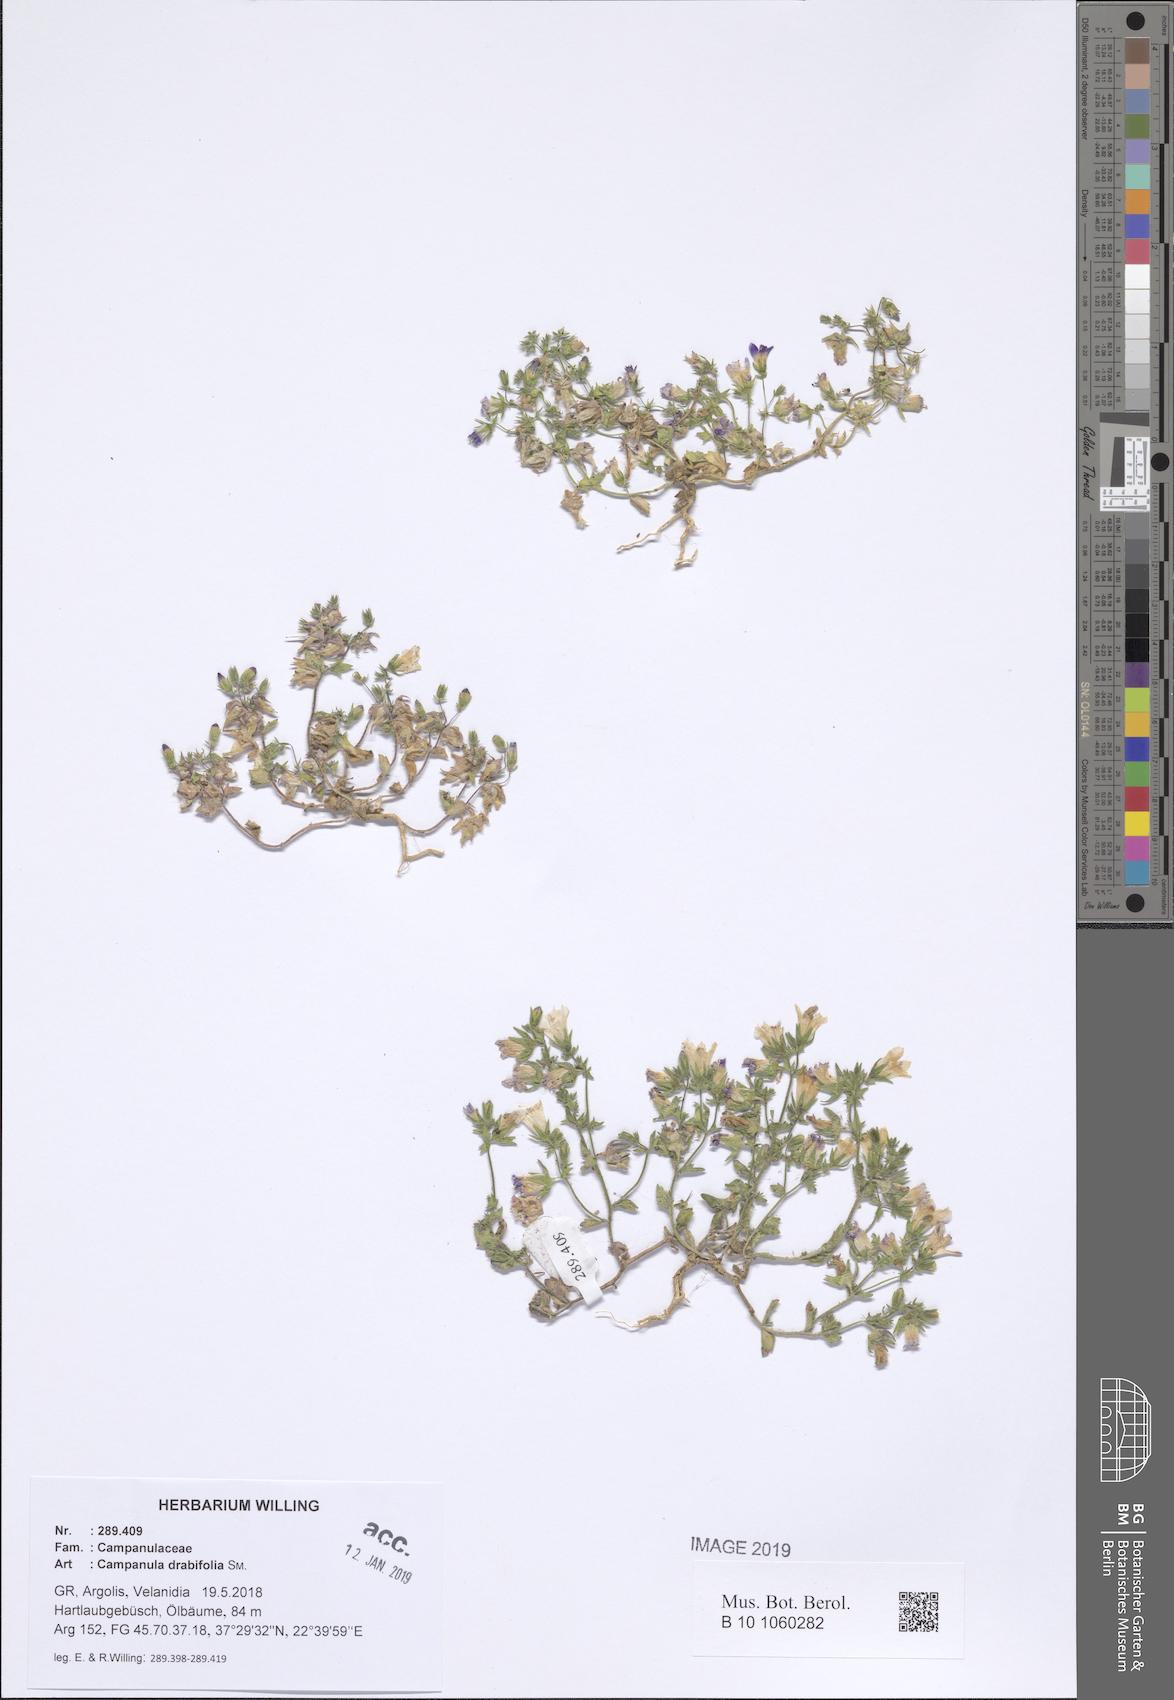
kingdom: Plantae
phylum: Tracheophyta
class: Magnoliopsida
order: Asterales
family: Campanulaceae
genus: Campanula
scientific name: Campanula drabifolia
